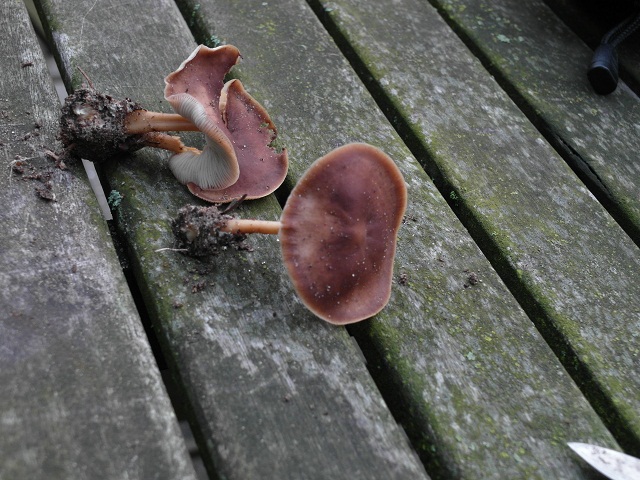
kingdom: Fungi
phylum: Basidiomycota
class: Agaricomycetes
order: Agaricales
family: Omphalotaceae
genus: Gymnopus
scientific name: Gymnopus ocior
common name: mørk fladhat
